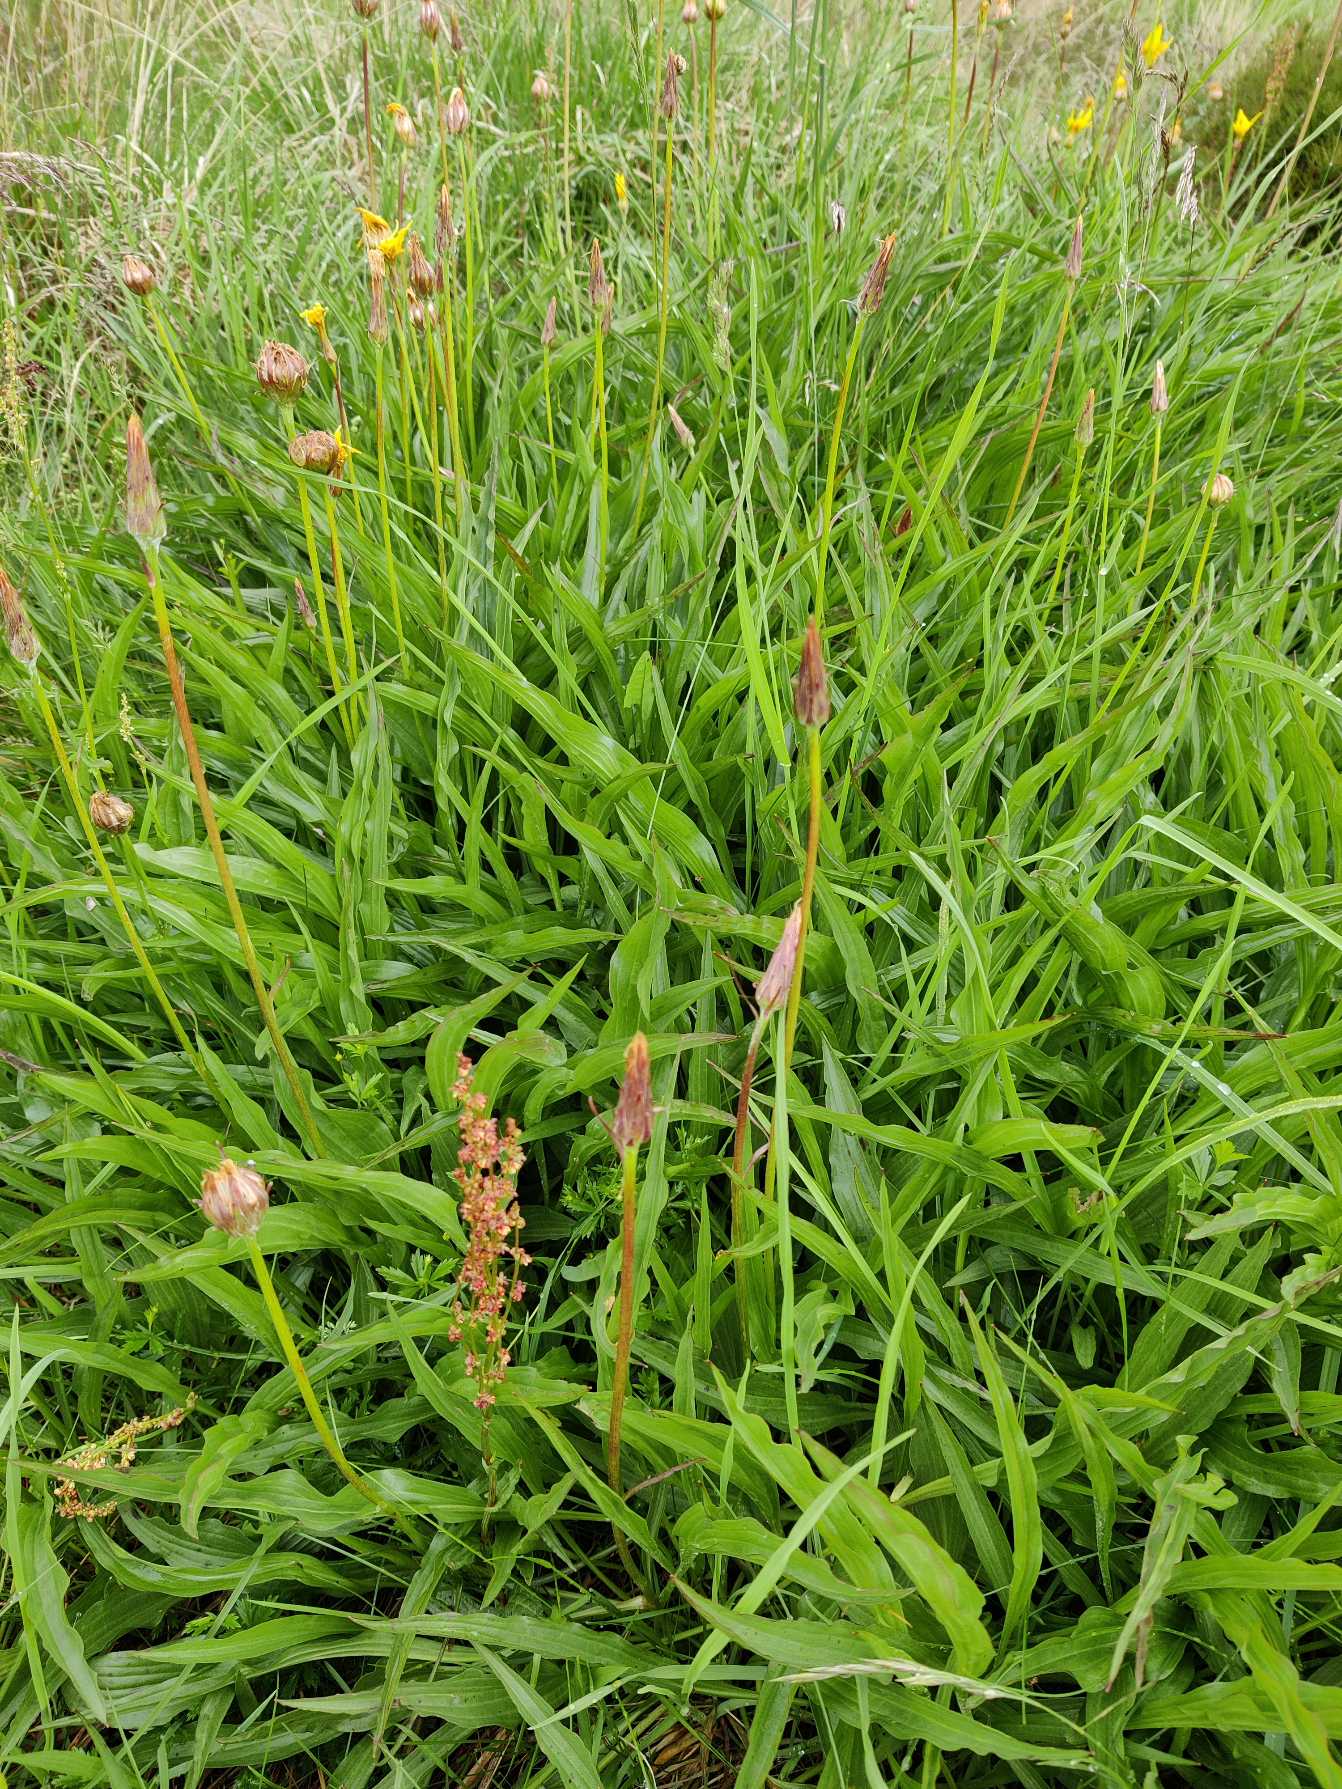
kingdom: Plantae
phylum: Tracheophyta
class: Magnoliopsida
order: Asterales
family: Asteraceae
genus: Scorzonera
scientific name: Scorzonera humilis
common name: Lav skorsoner
